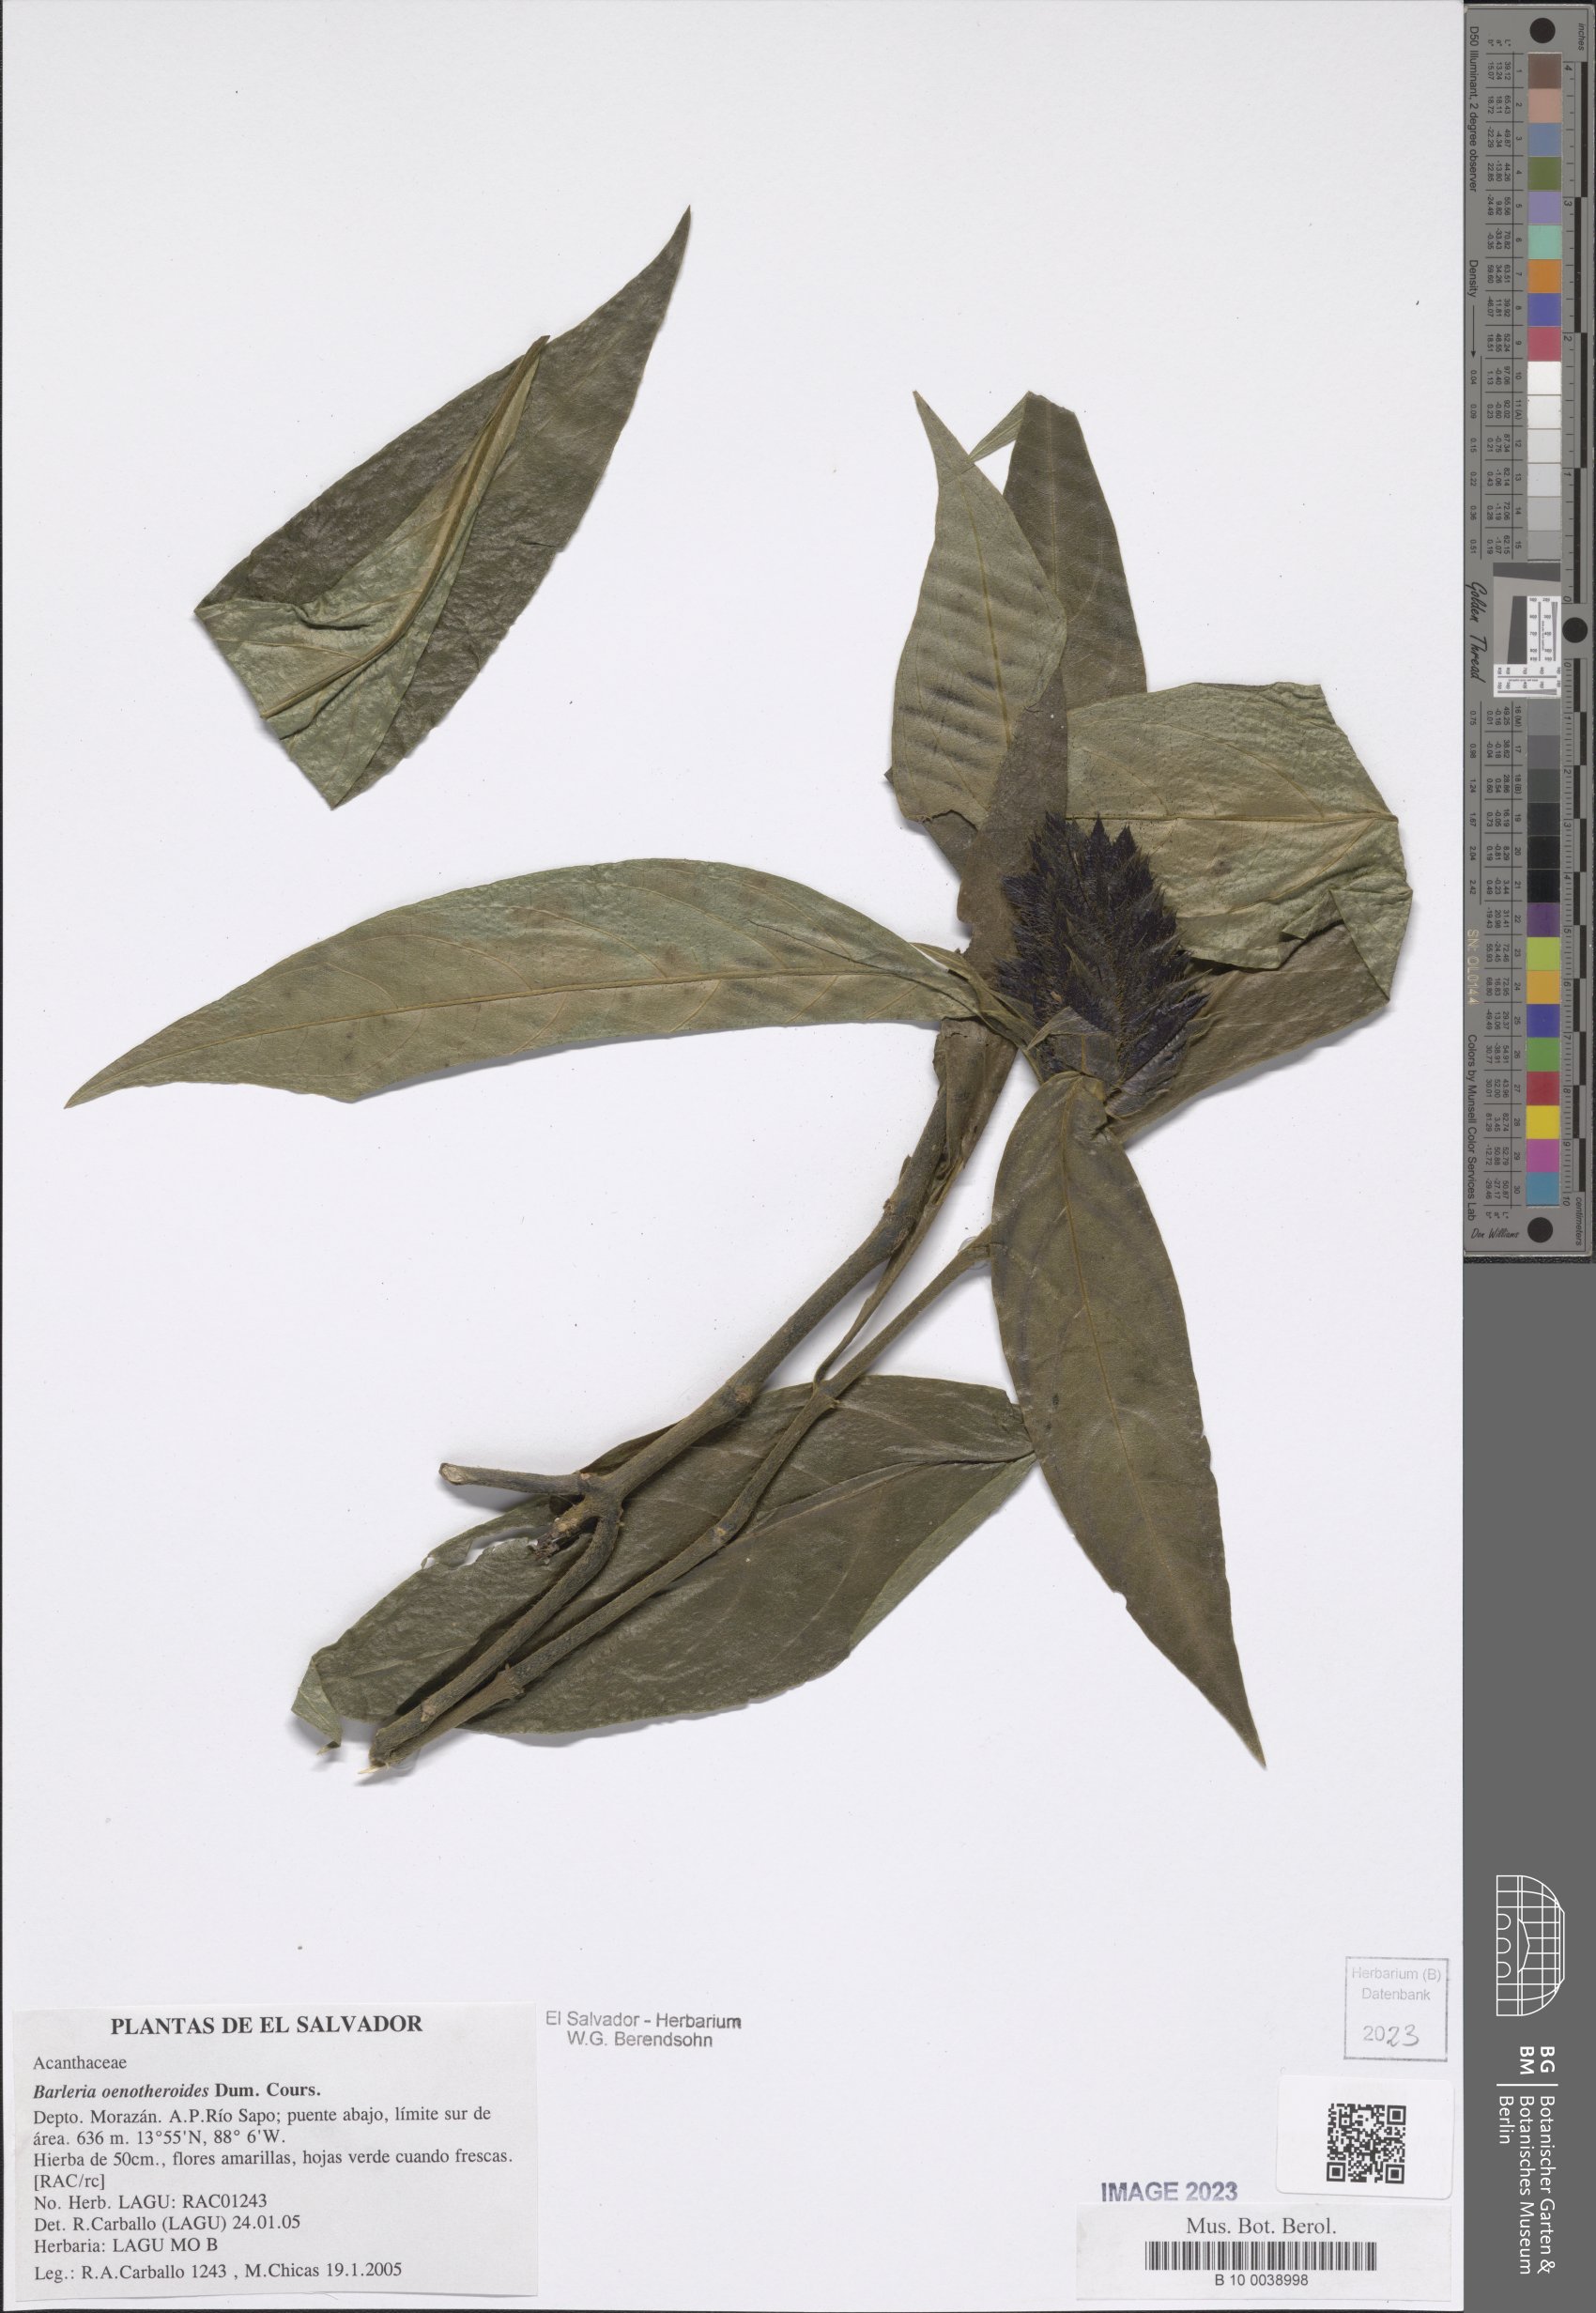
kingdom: Plantae
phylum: Tracheophyta
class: Magnoliopsida
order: Lamiales
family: Acanthaceae
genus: Barleria
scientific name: Barleria oenotheroides
